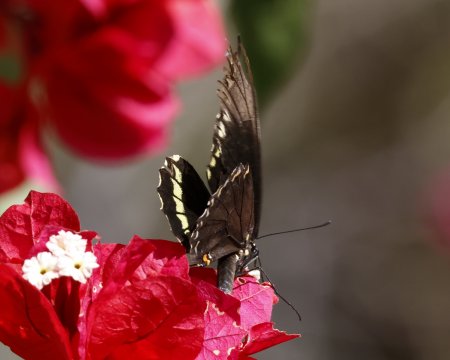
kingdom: Animalia
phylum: Arthropoda
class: Insecta
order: Lepidoptera
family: Papilionidae
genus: Battus
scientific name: Battus polydamas
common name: Polydamas Swallowtail
